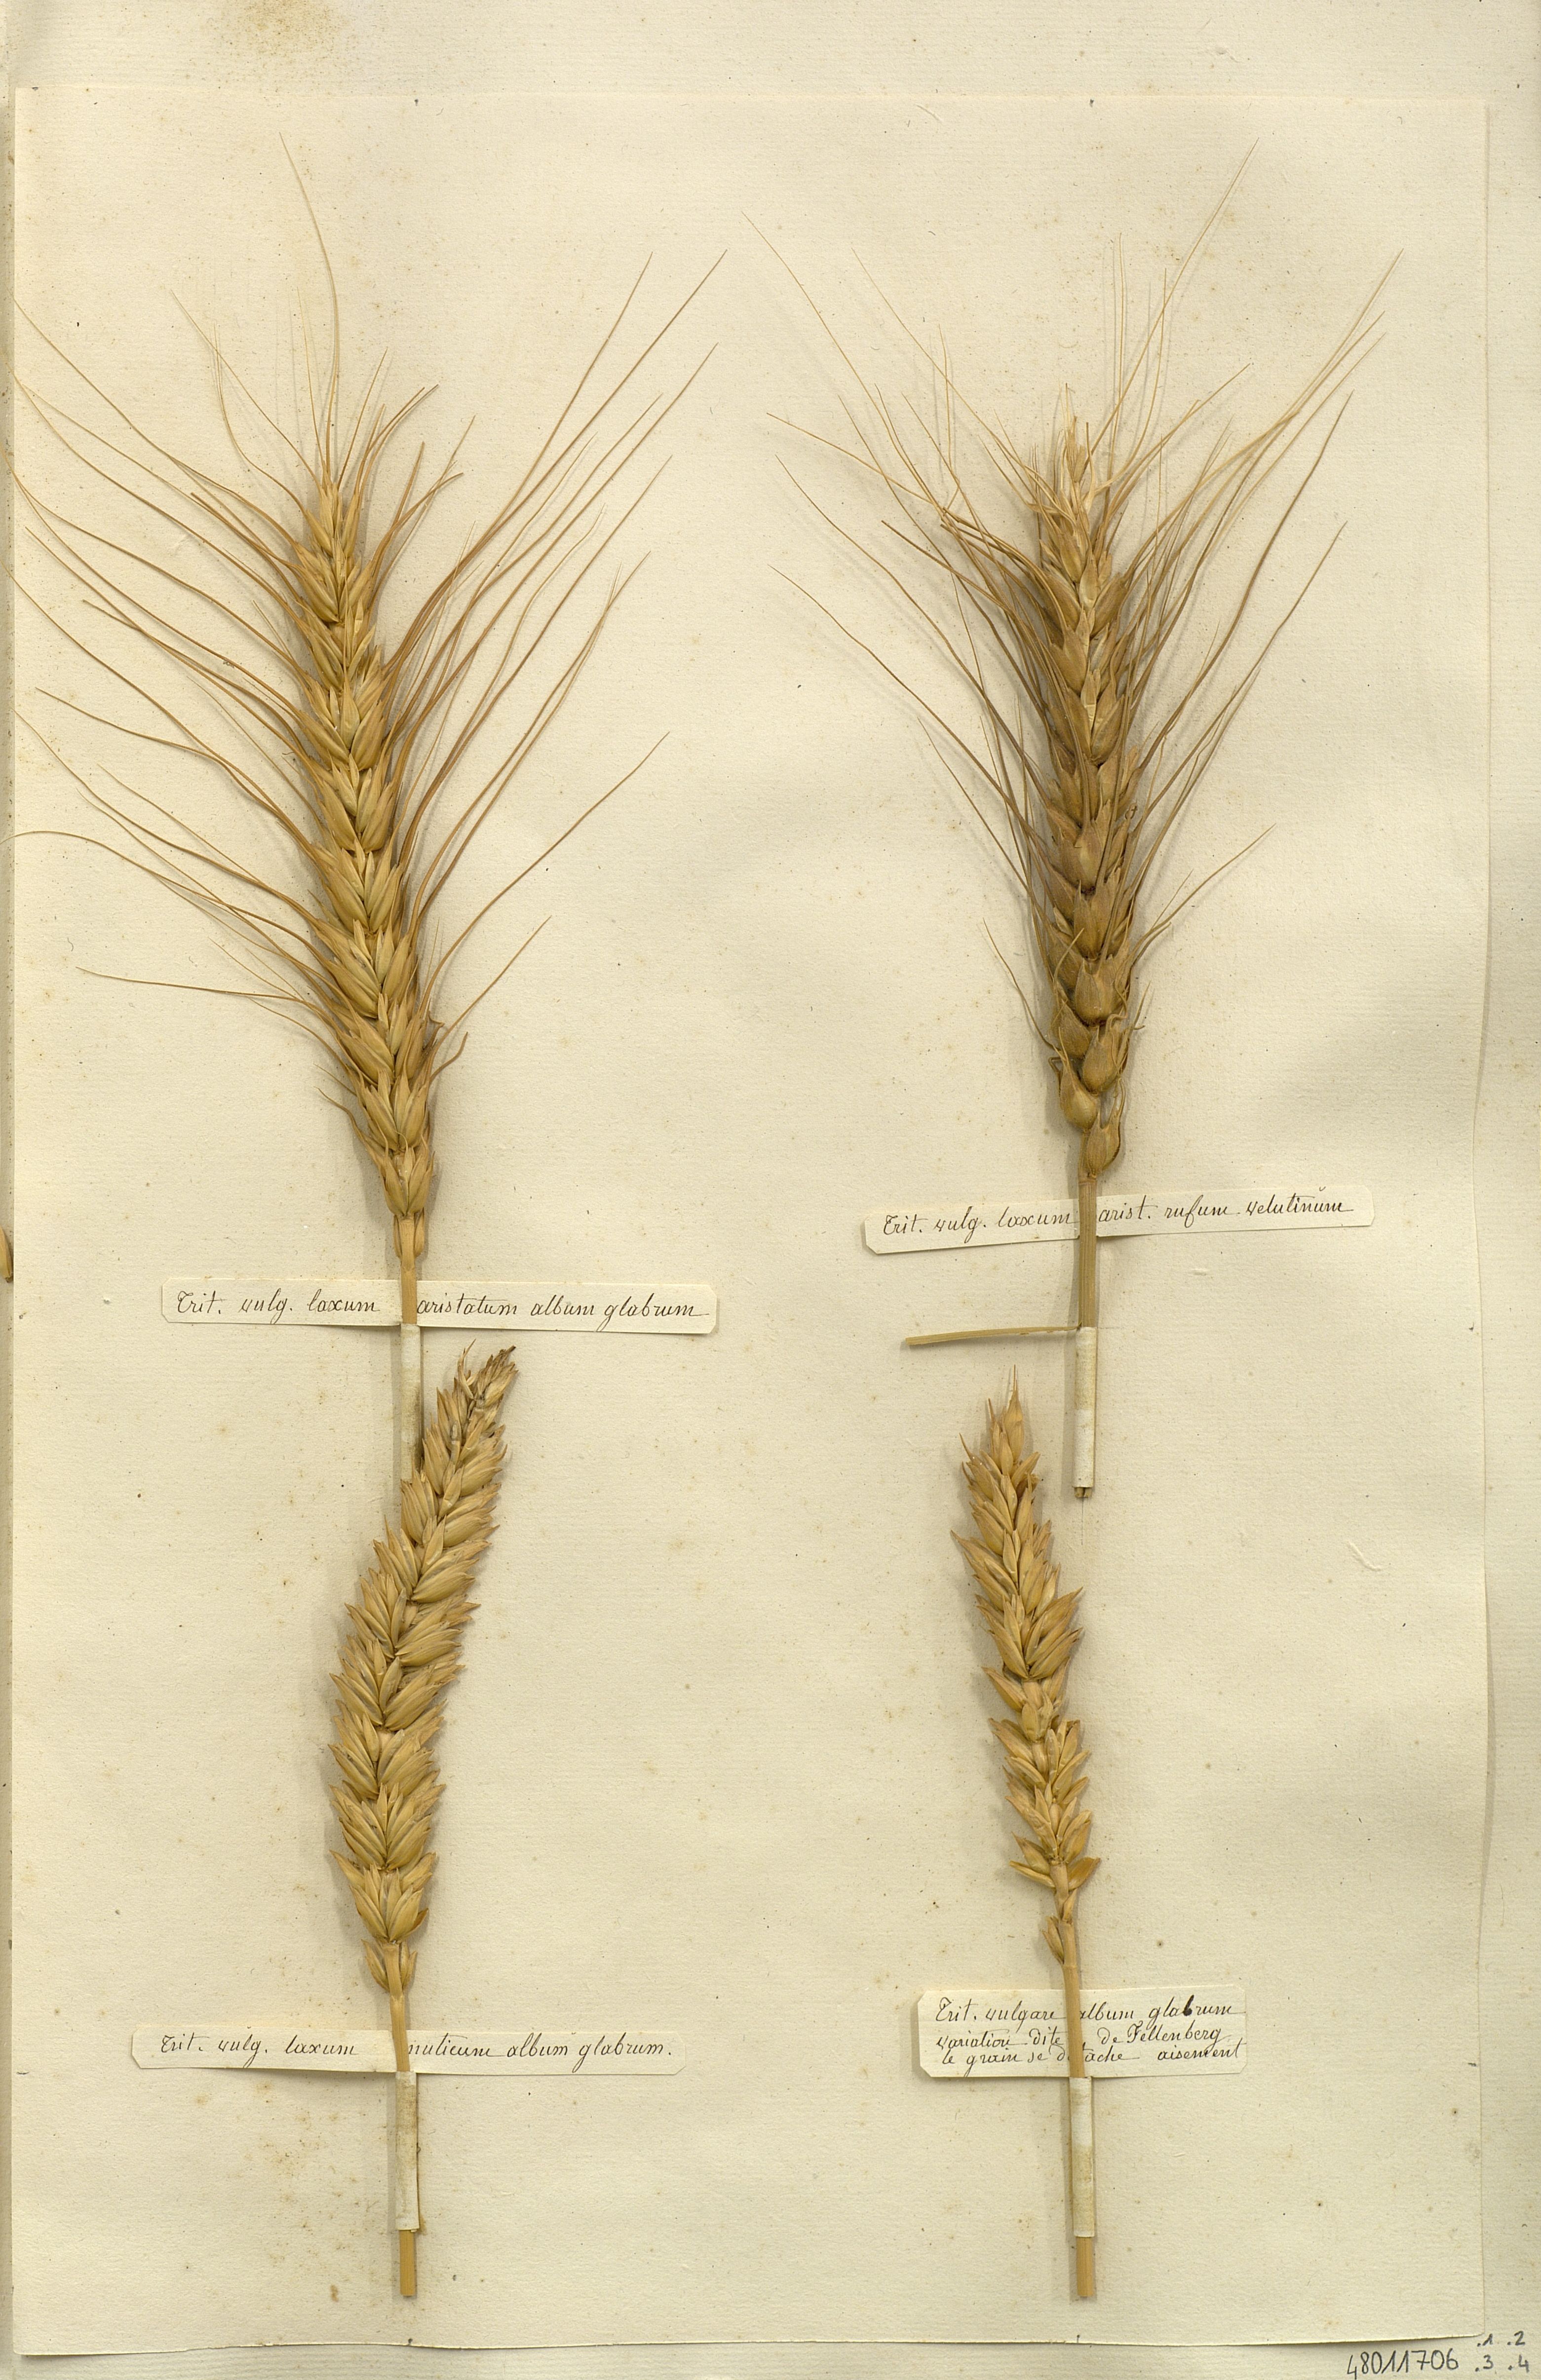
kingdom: Plantae
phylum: Tracheophyta
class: Liliopsida
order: Poales
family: Poaceae
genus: Triticum
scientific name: Triticum vulgare
